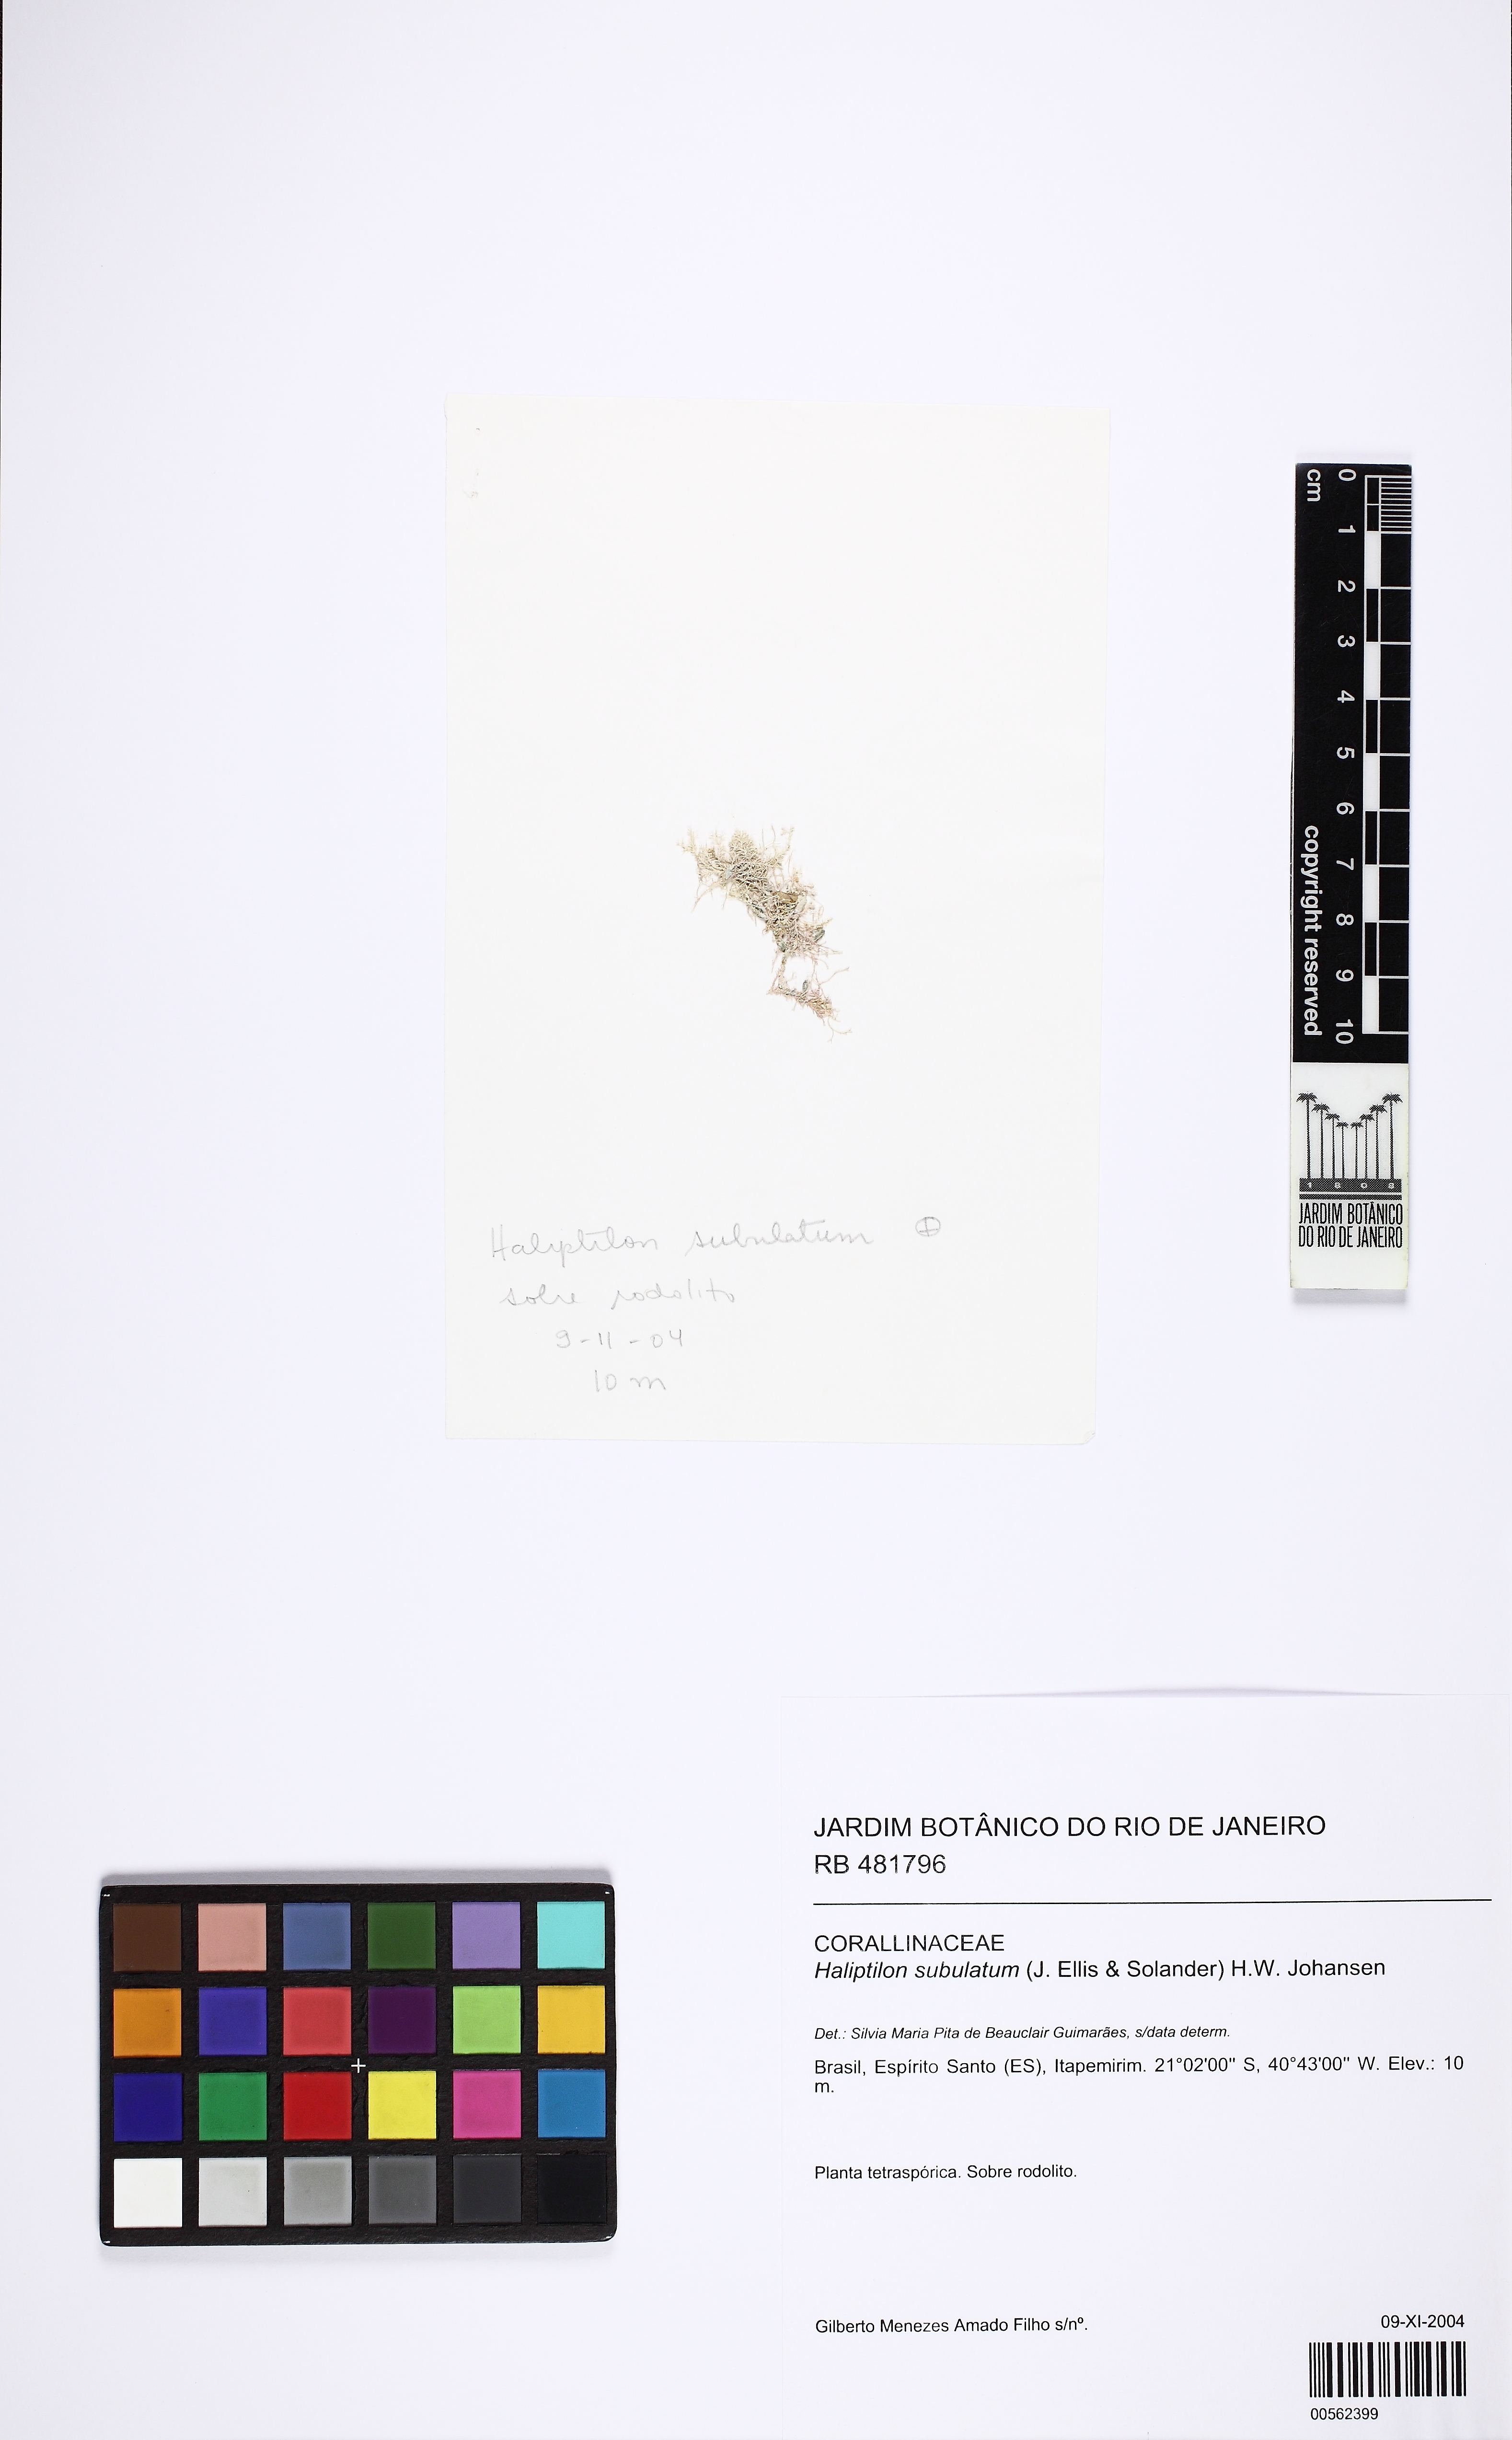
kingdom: Plantae
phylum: Rhodophyta
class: Florideophyceae
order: Corallinales
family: Corallinaceae
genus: Jania
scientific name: Jania subulata
